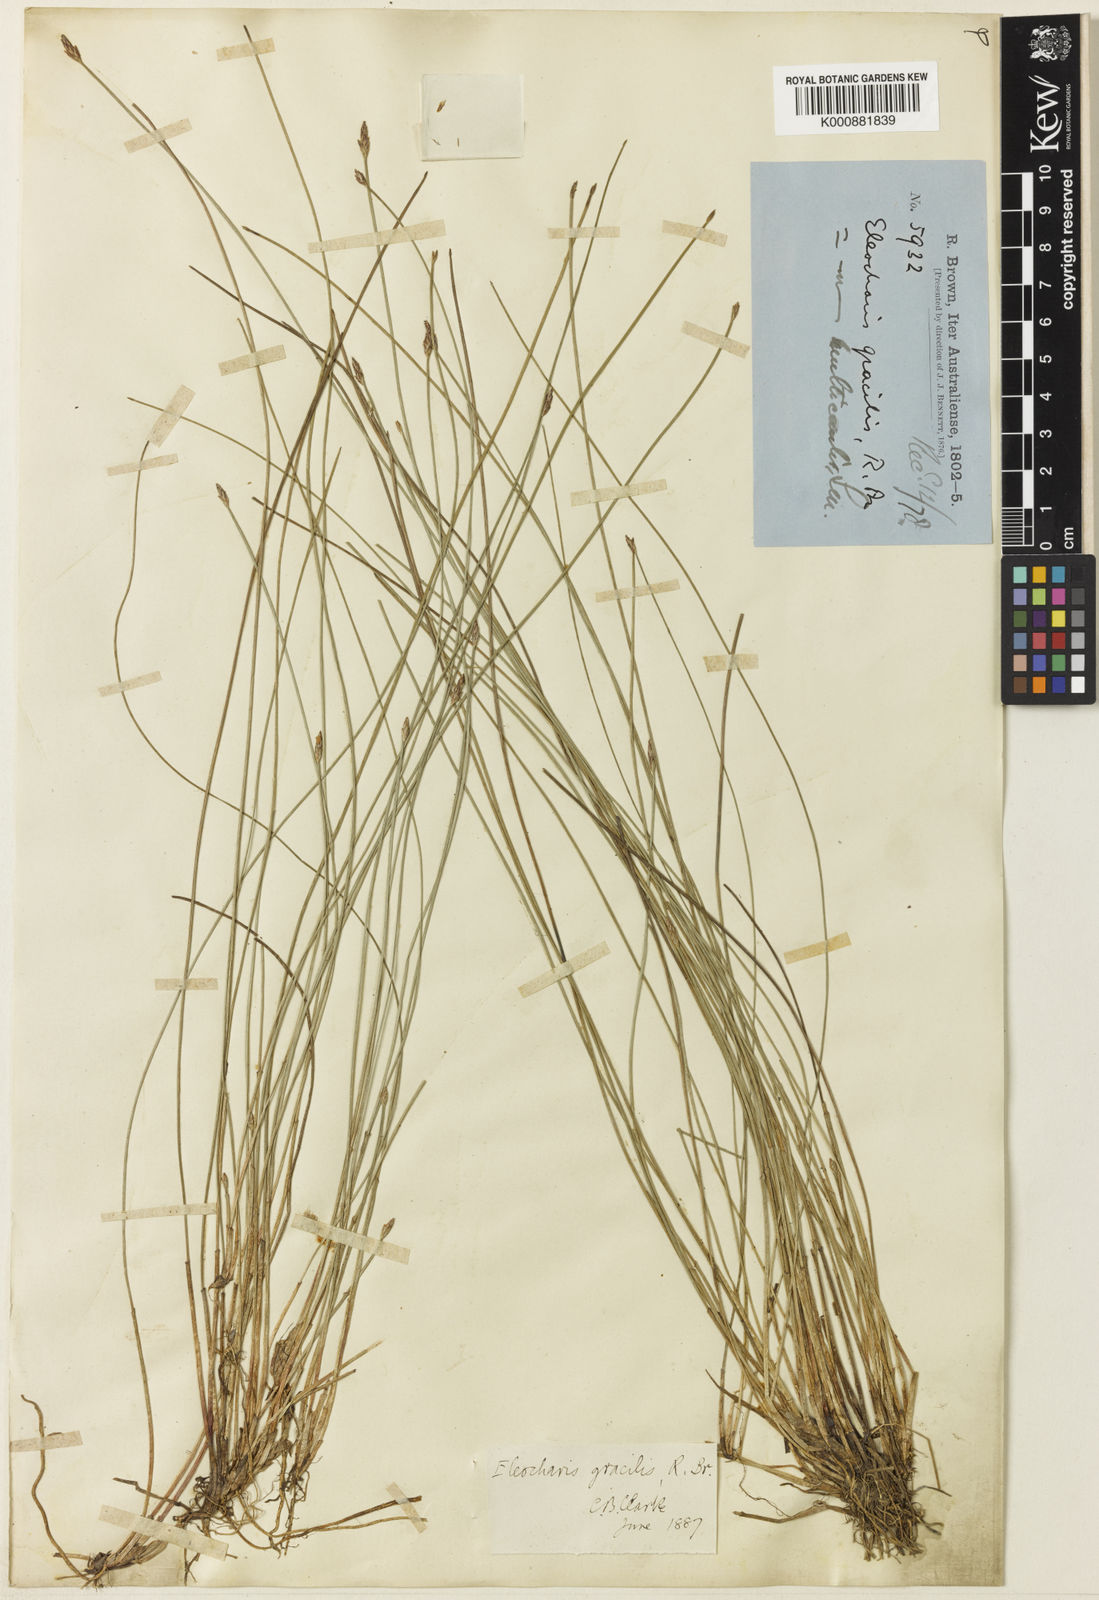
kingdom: Plantae
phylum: Tracheophyta
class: Liliopsida
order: Poales
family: Cyperaceae
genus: Eleocharis
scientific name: Eleocharis multicaulis
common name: Many-stalked spike-rush
